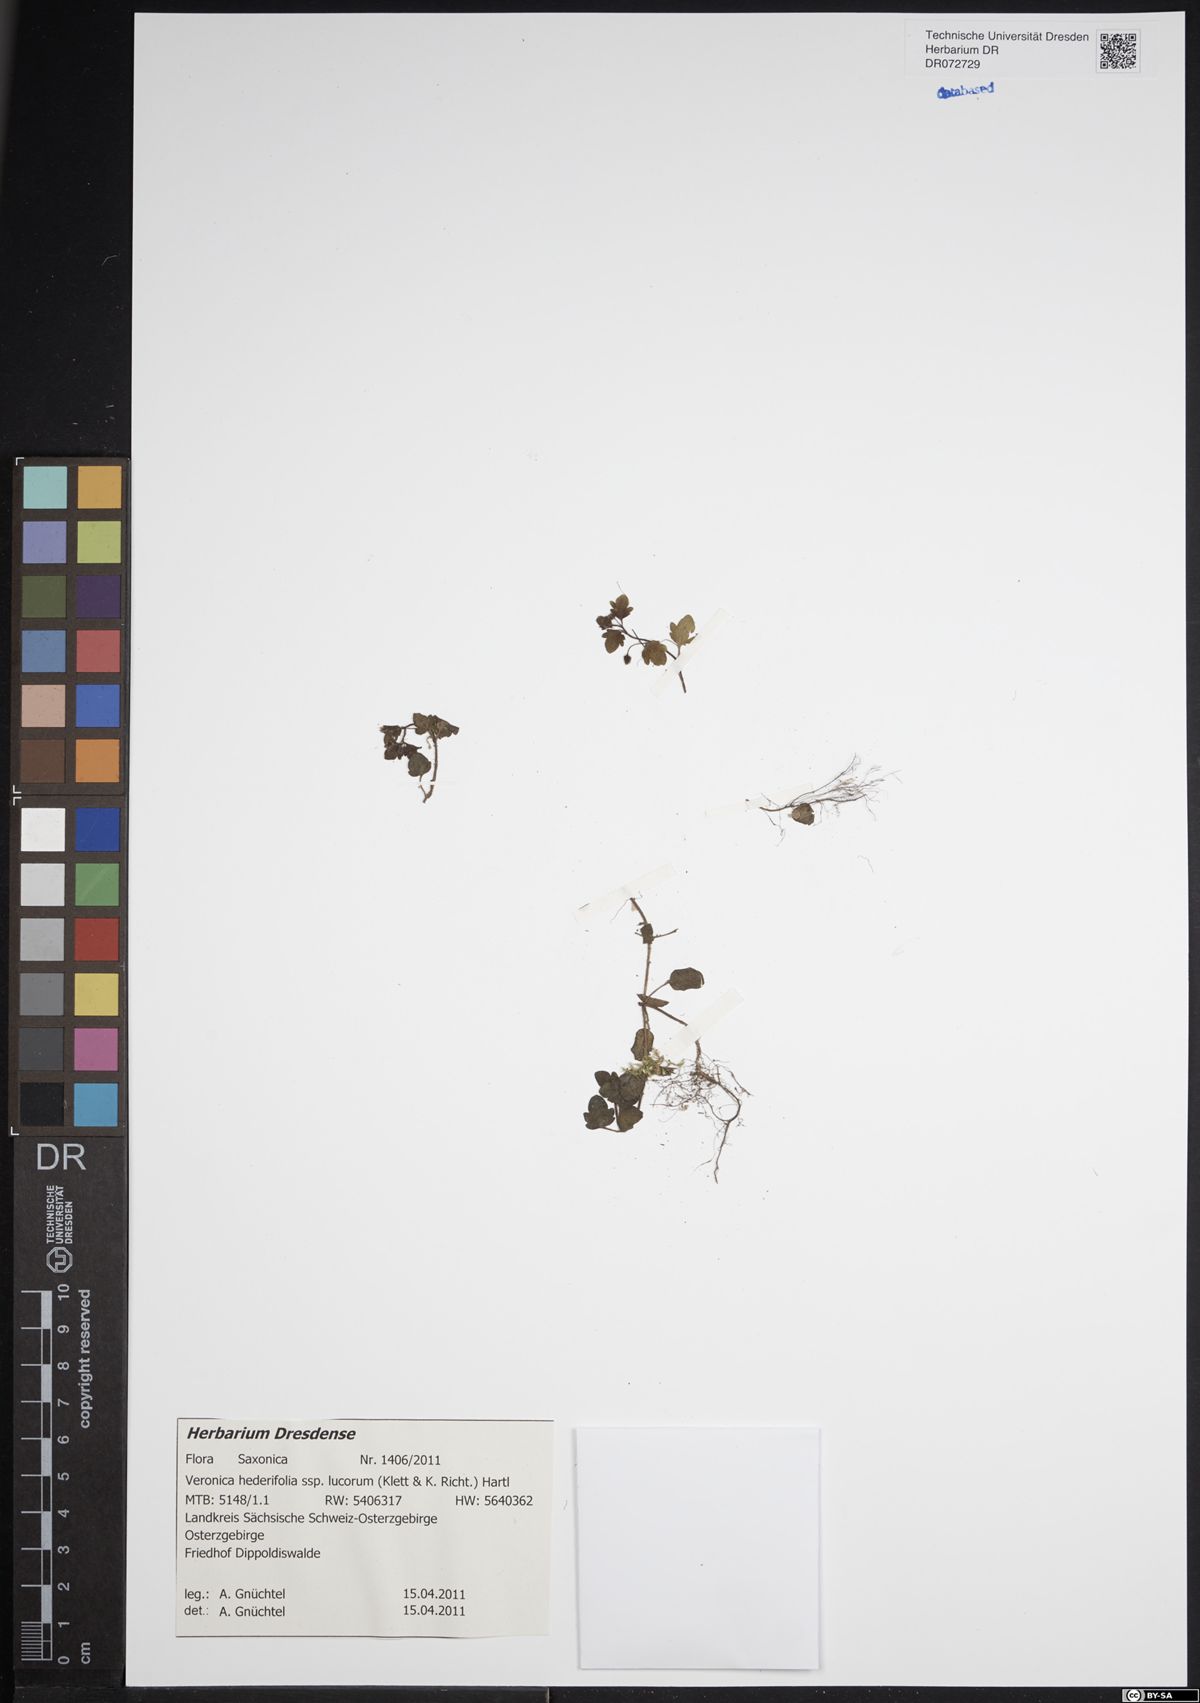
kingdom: Plantae
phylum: Tracheophyta
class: Magnoliopsida
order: Lamiales
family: Plantaginaceae
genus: Veronica
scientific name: Veronica hederifolia
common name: Ivy-leaved speedwell
